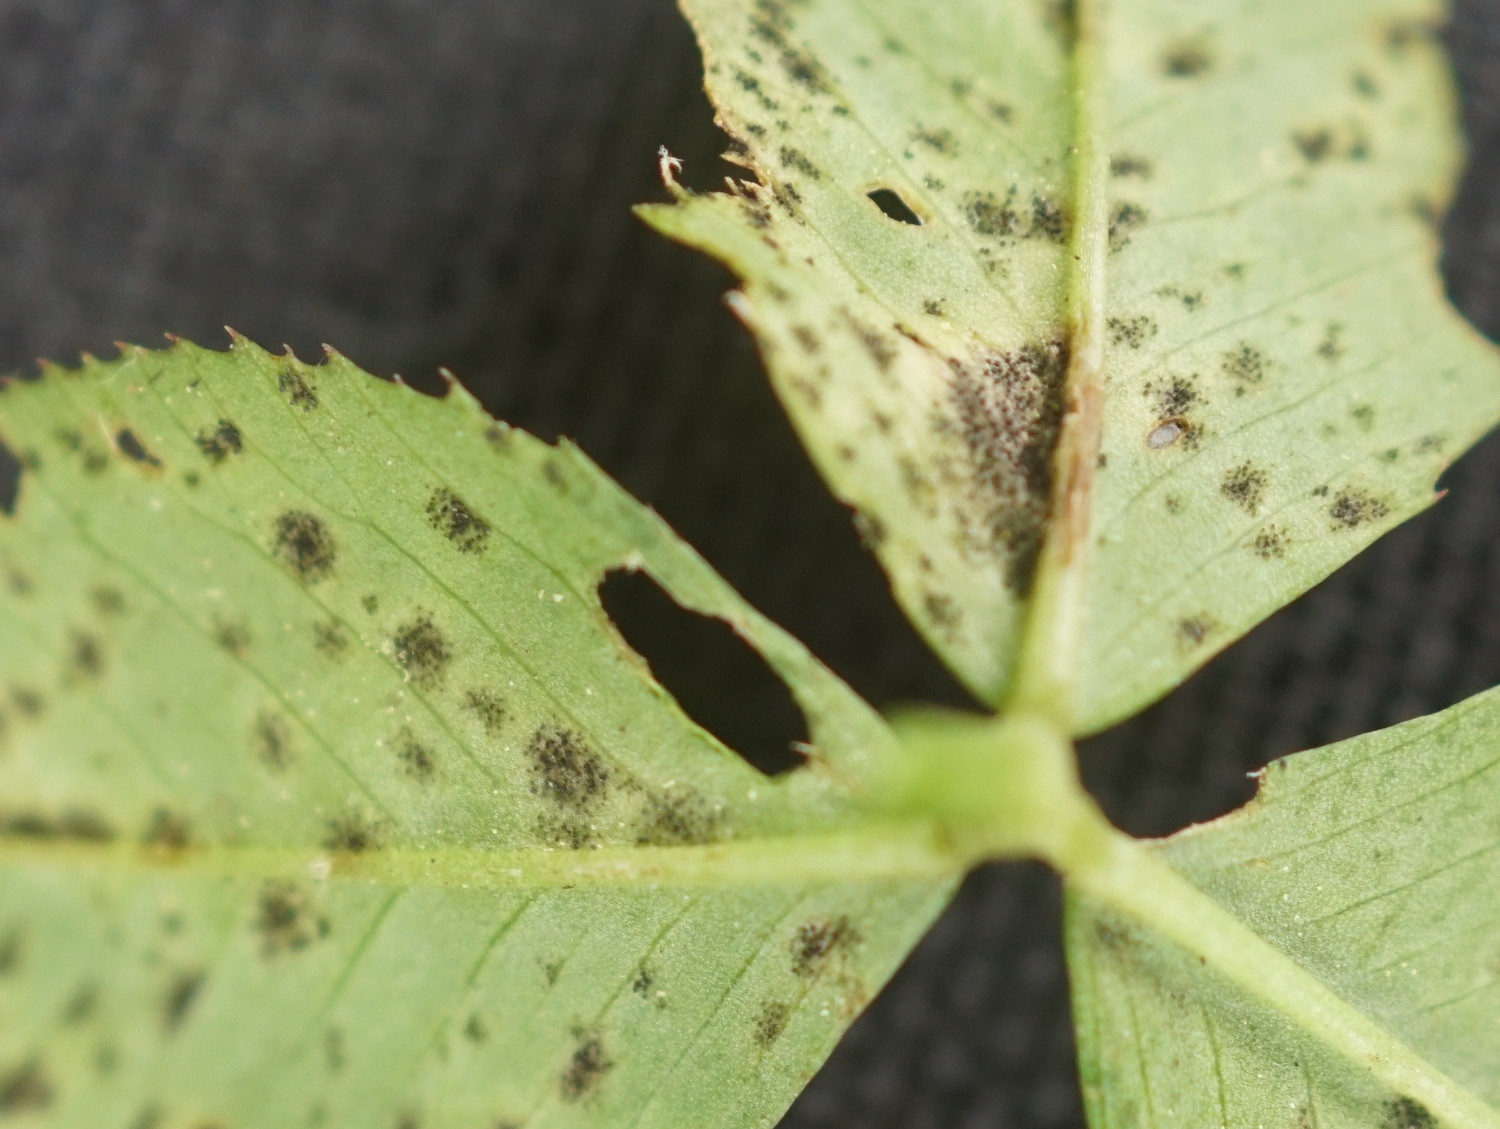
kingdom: Fungi
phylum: Ascomycota
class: Dothideomycetes
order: Mycosphaerellales
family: Mycosphaerellaceae
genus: Polythrincium
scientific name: Polythrincium trifolii
